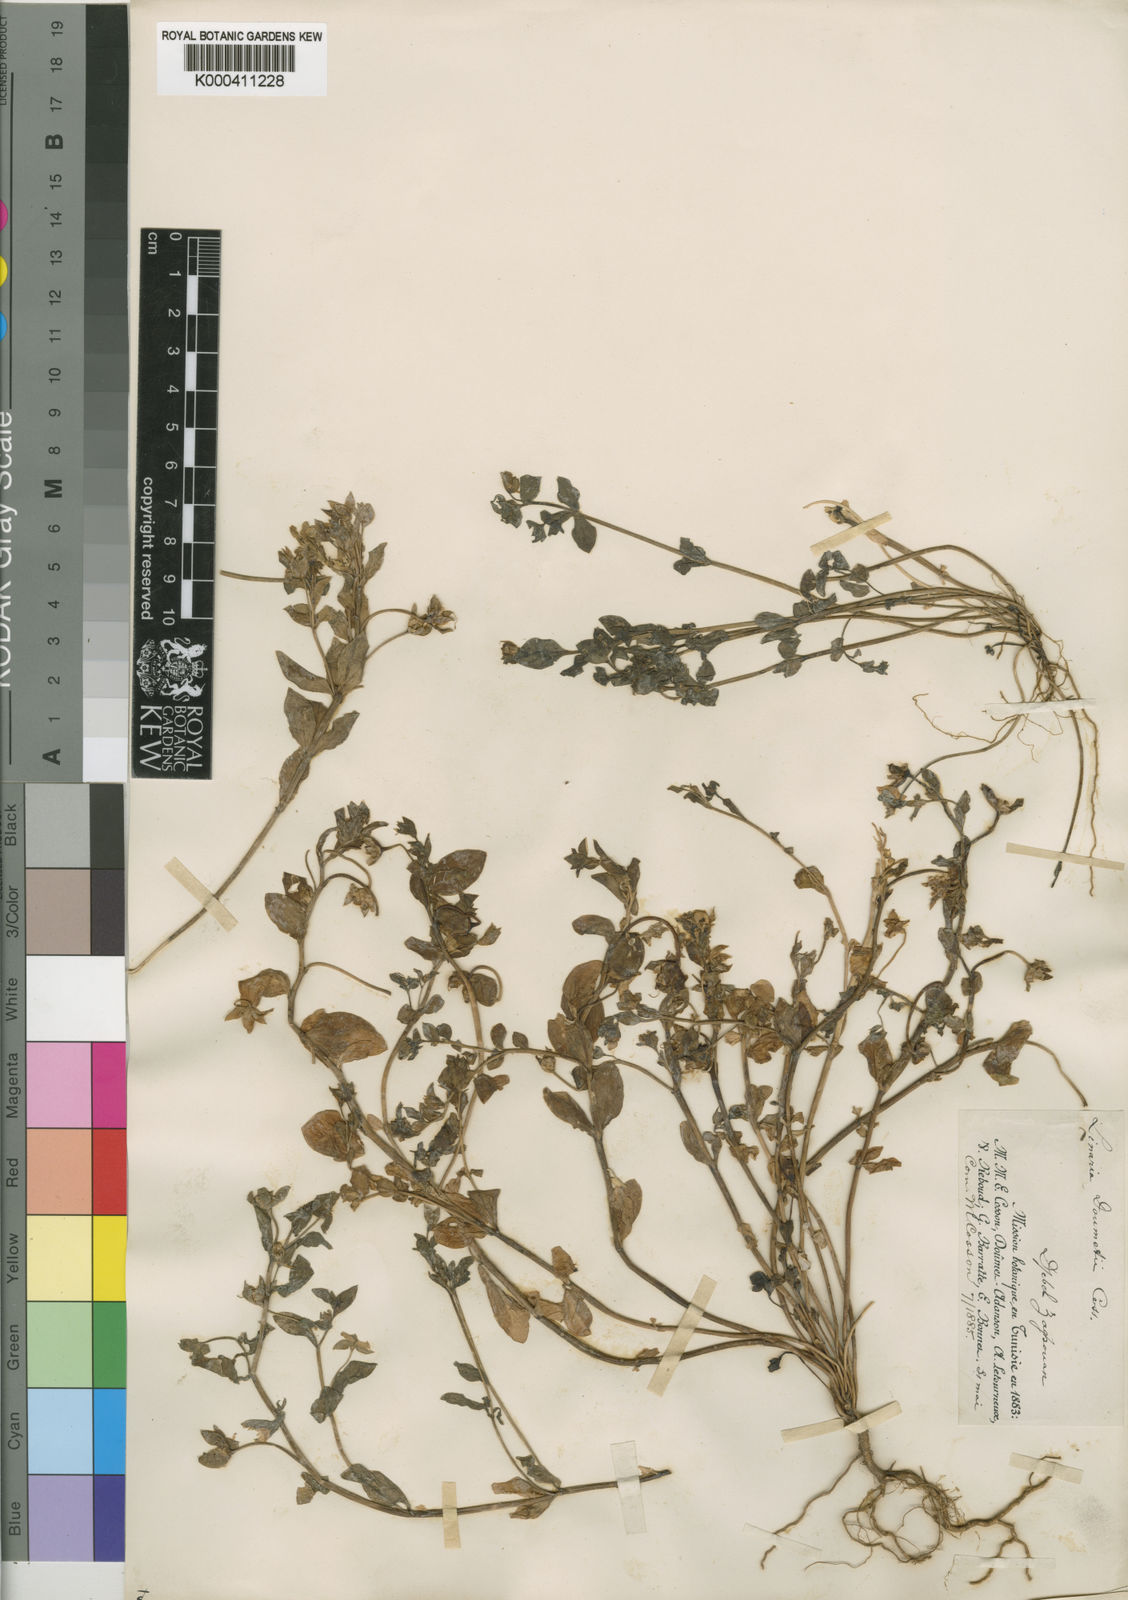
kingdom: Plantae
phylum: Tracheophyta
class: Magnoliopsida
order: Lamiales
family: Plantaginaceae
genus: Linaria
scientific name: Linaria
